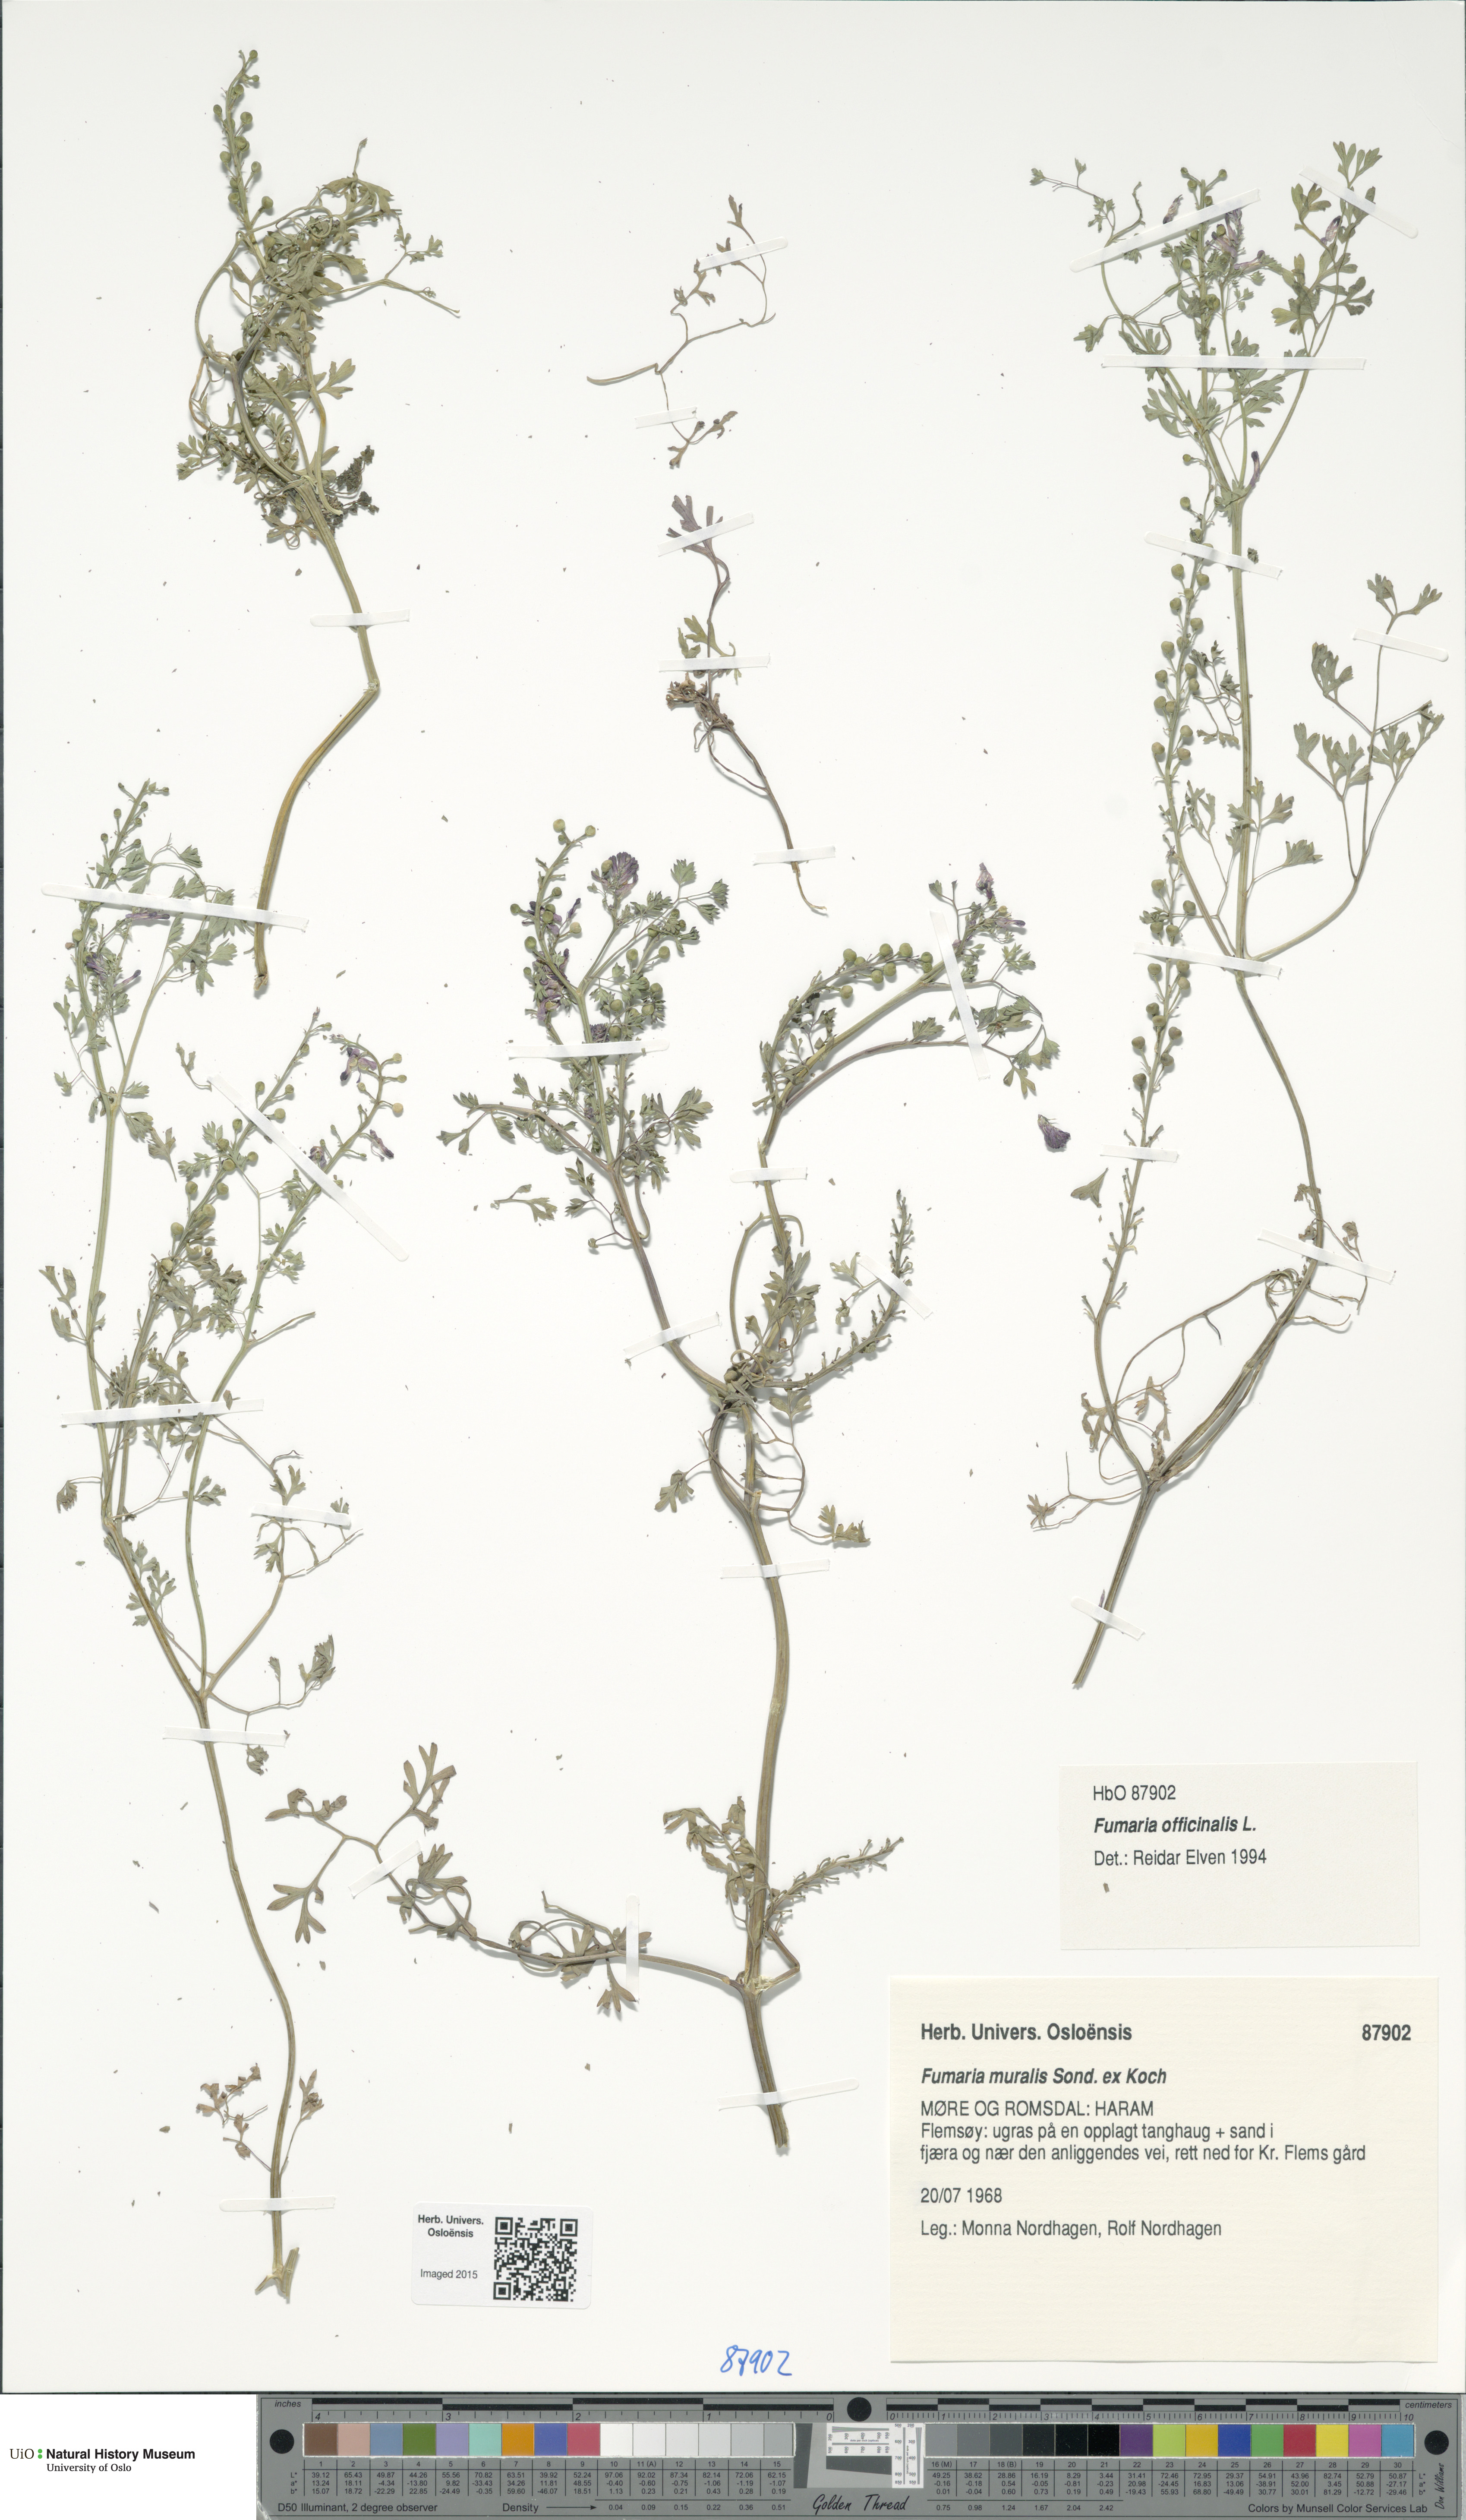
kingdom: Plantae
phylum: Tracheophyta
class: Magnoliopsida
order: Ranunculales
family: Papaveraceae
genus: Fumaria
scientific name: Fumaria officinalis
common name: Common fumitory
